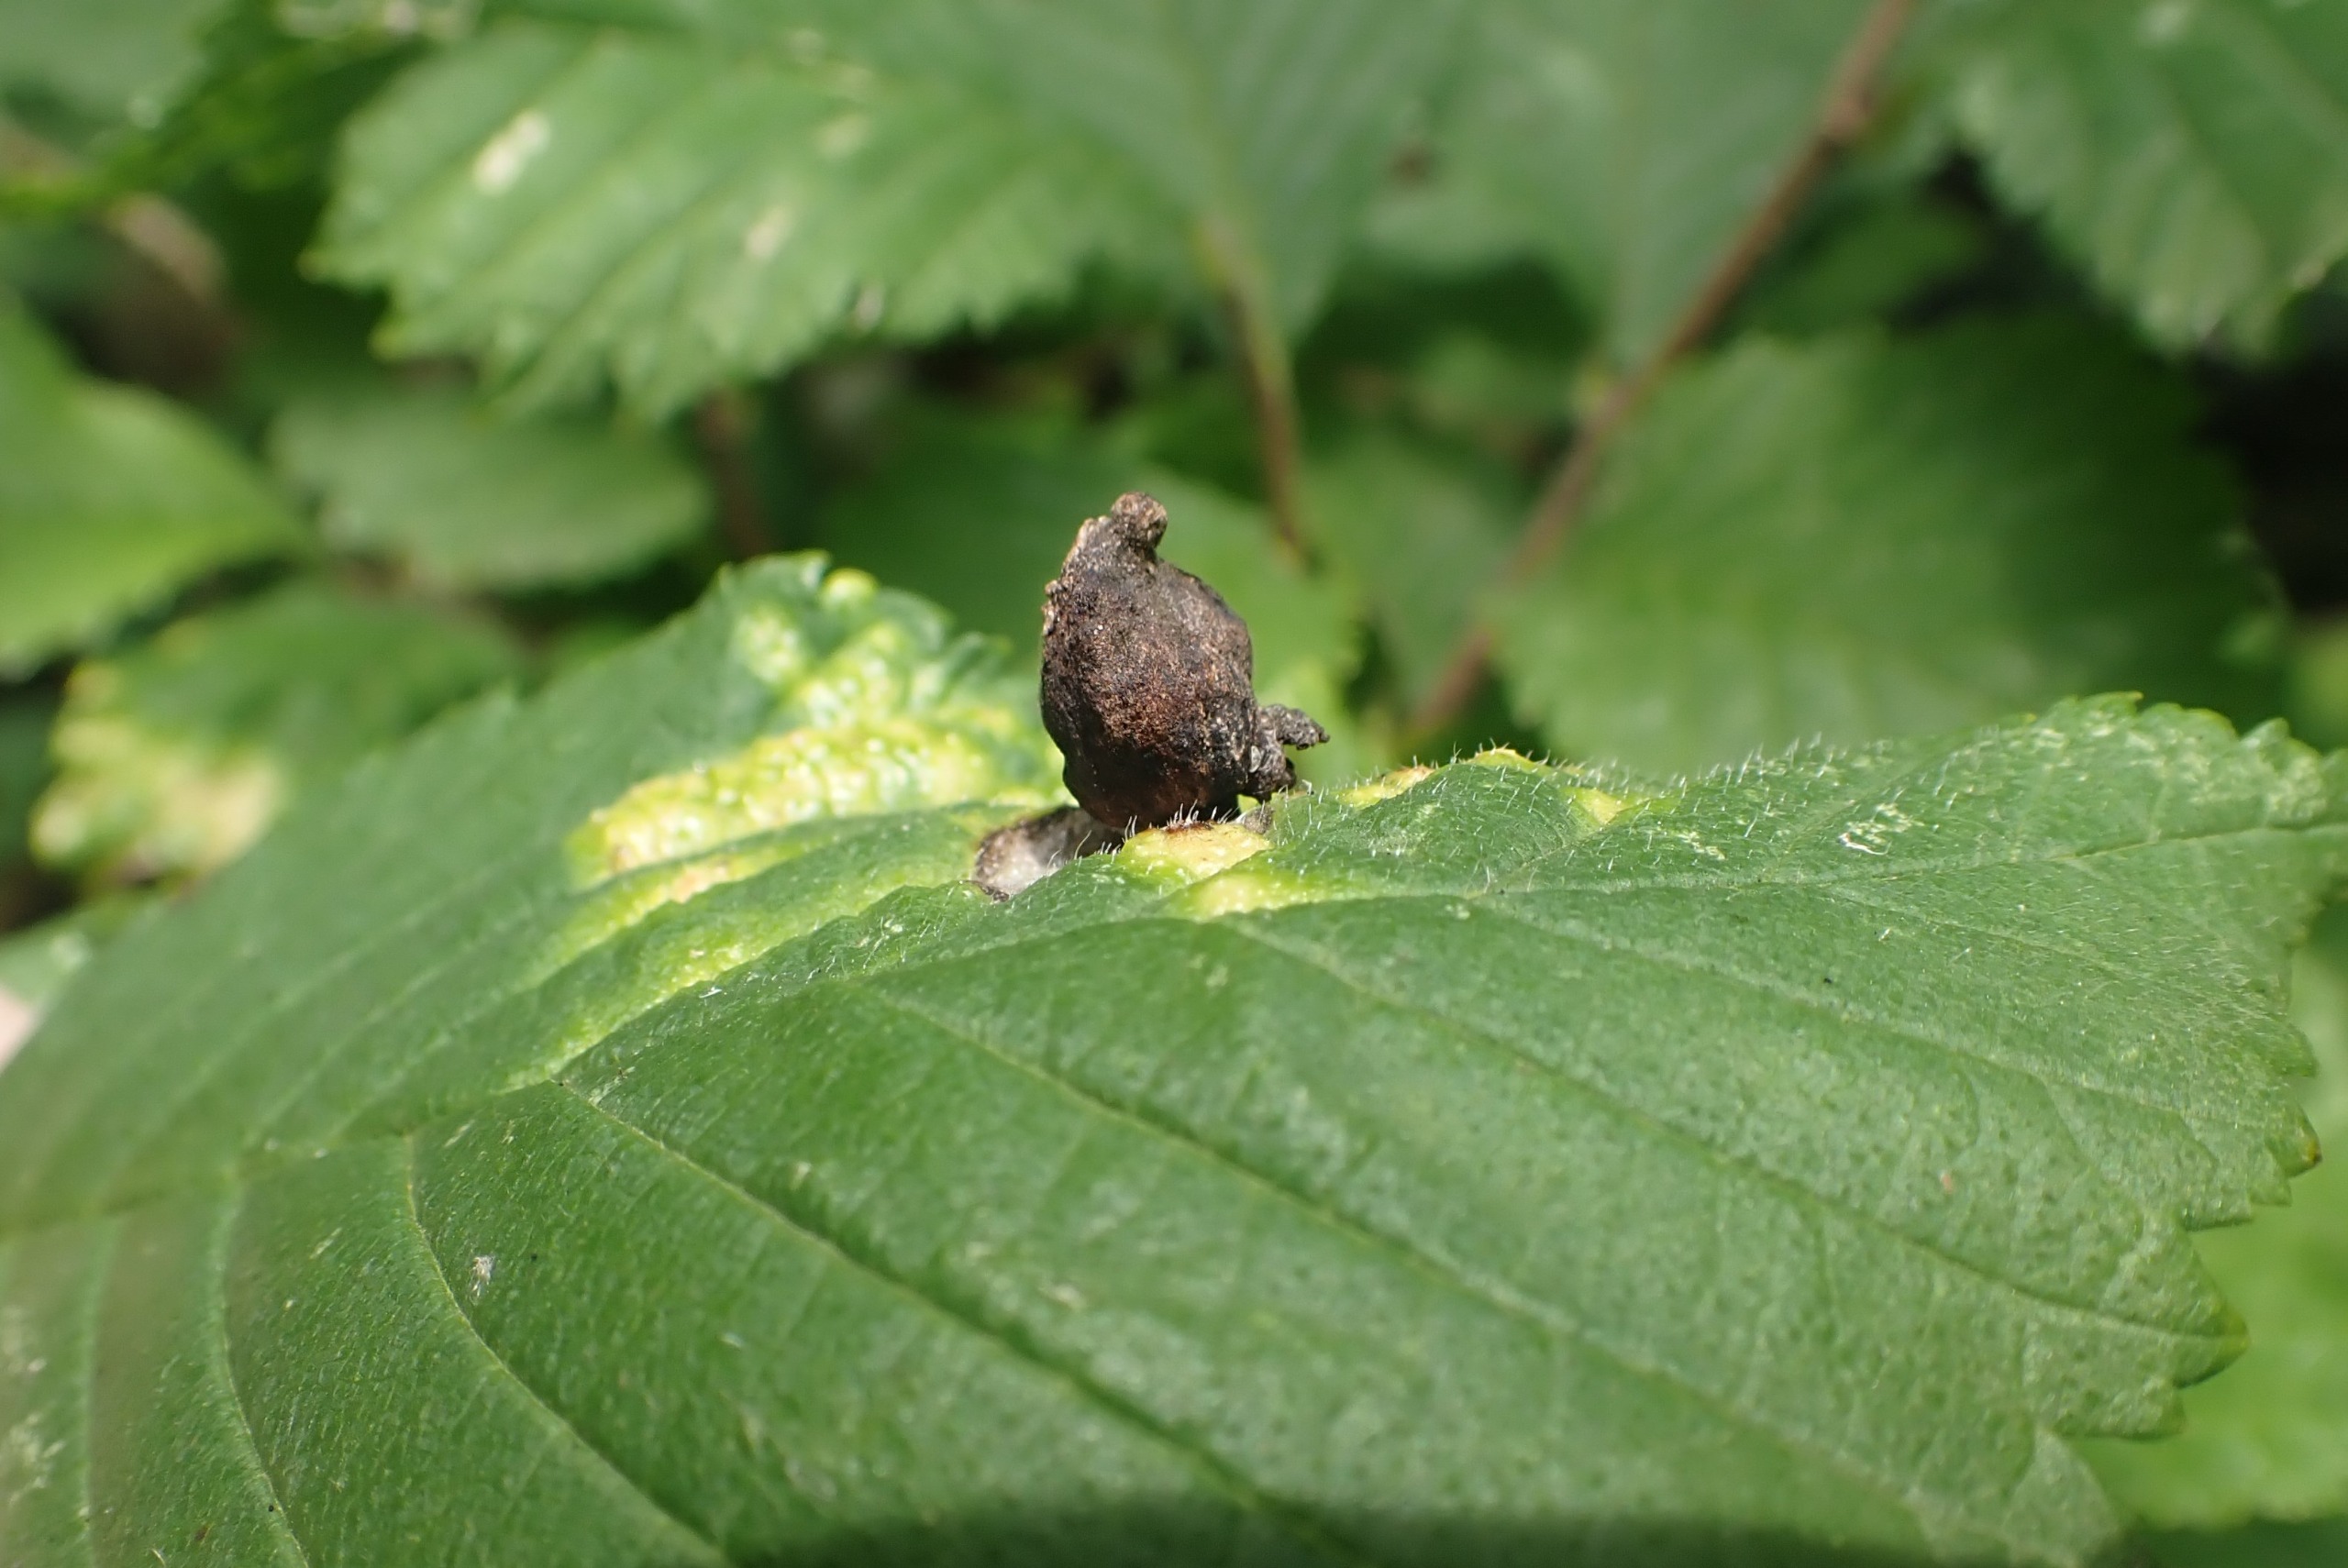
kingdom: Animalia
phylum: Arthropoda
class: Insecta
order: Hemiptera
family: Aphididae
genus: Tetraneura
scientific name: Tetraneura ulmi
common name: Elmegallelus
